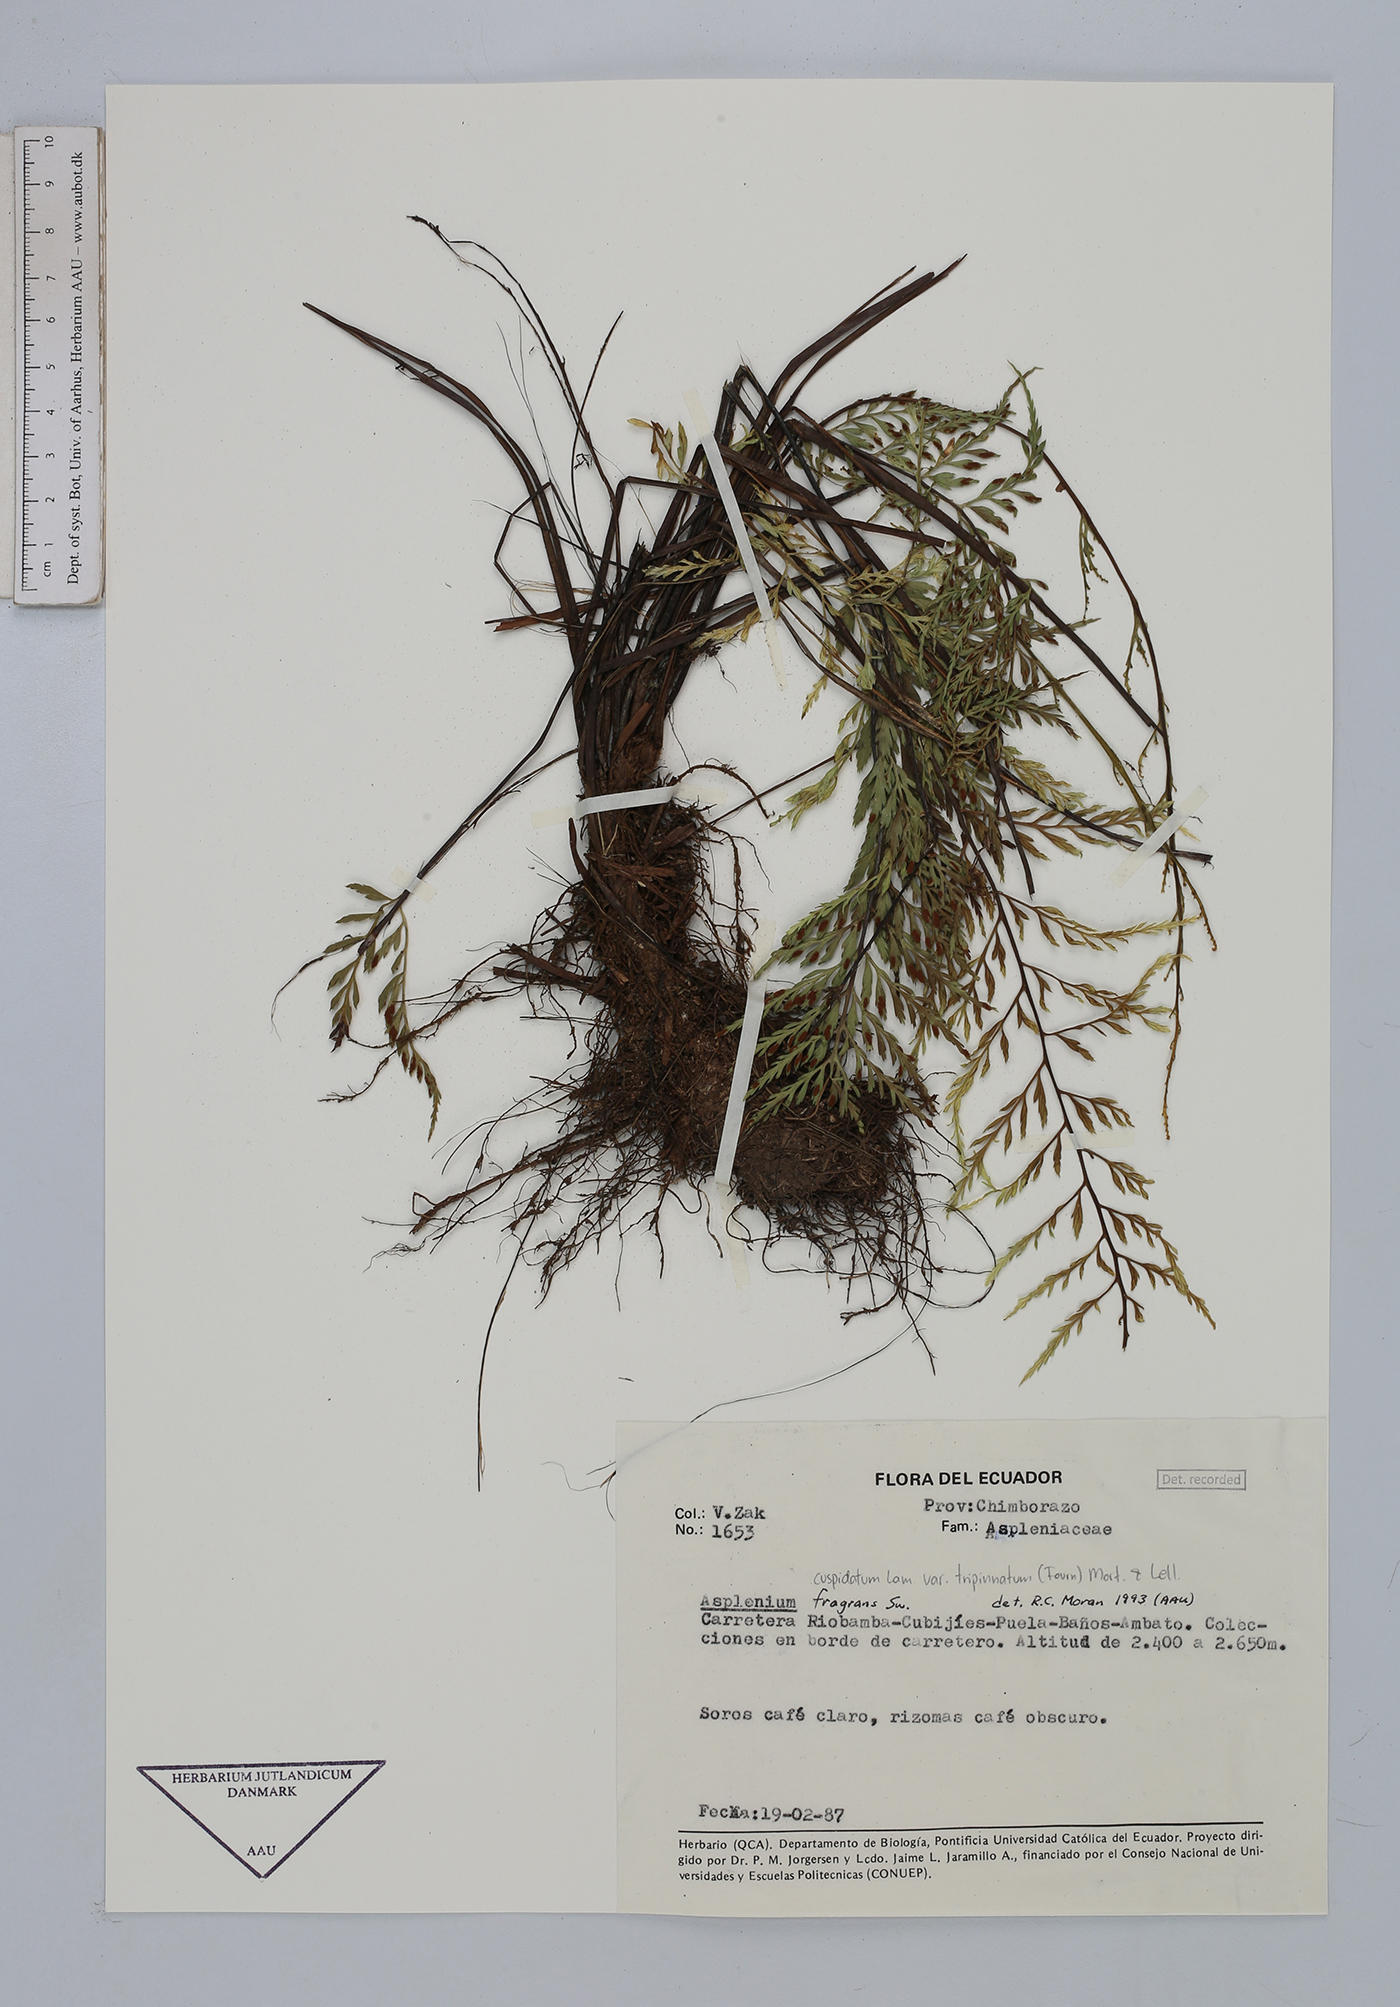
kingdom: Plantae
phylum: Tracheophyta
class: Polypodiopsida
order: Polypodiales
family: Aspleniaceae
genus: Asplenium
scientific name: Asplenium fragrans
